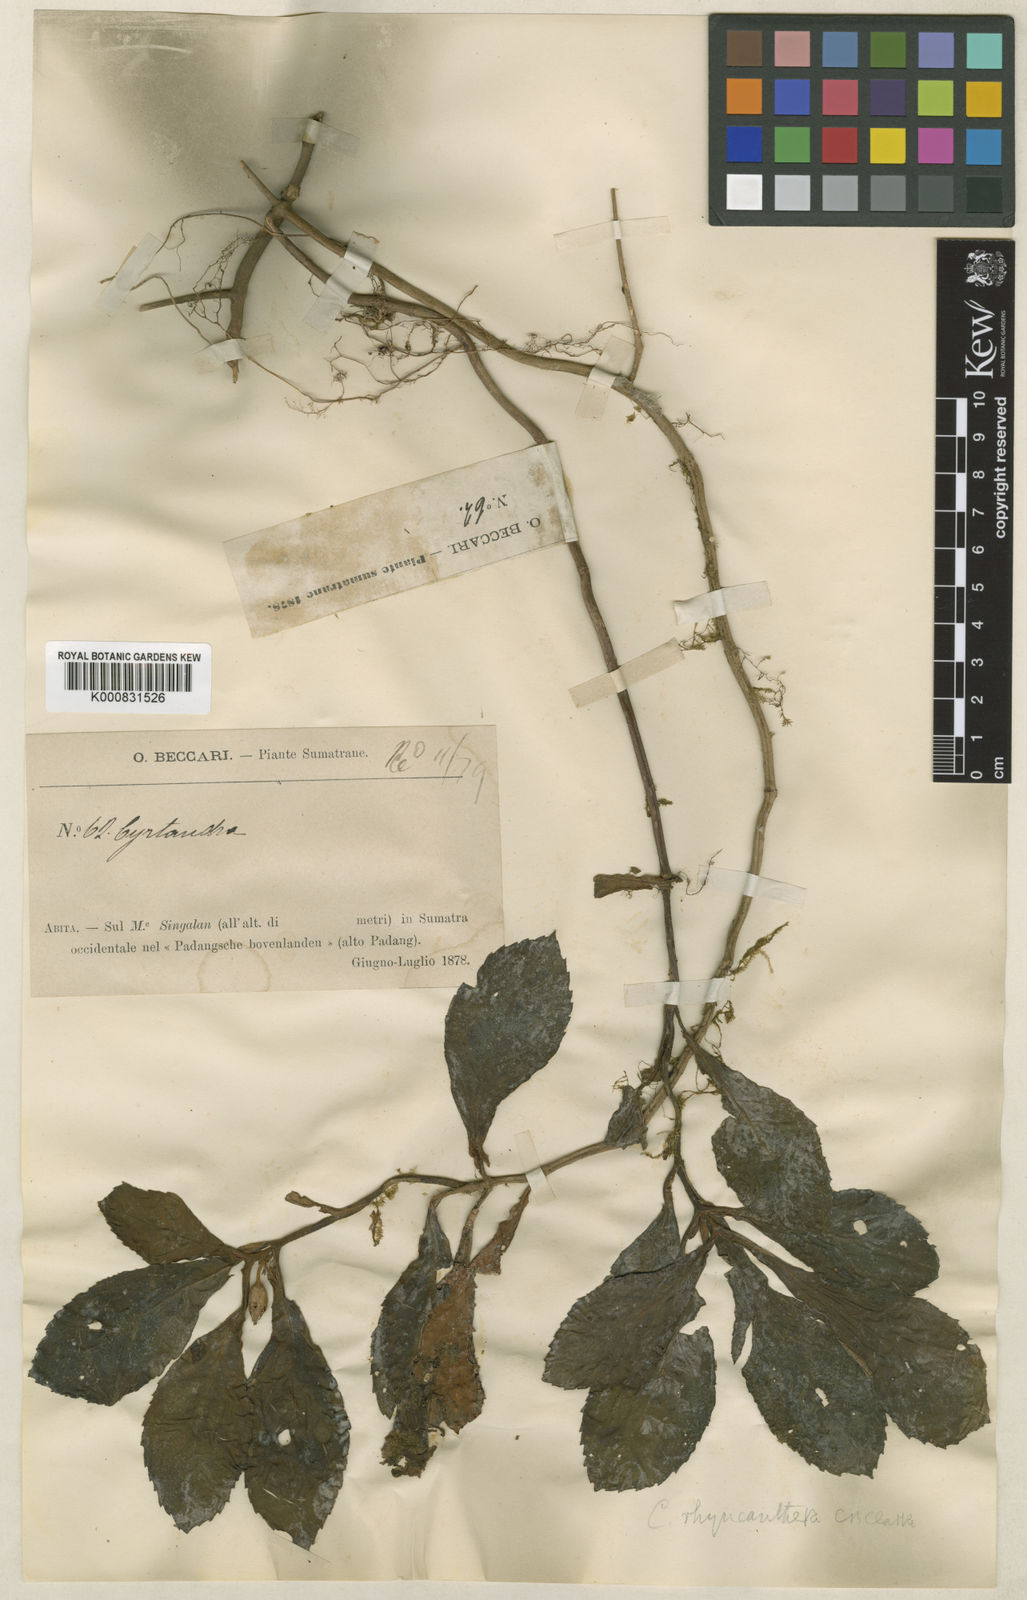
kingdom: Plantae
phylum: Tracheophyta
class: Magnoliopsida
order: Lamiales
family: Gesneriaceae
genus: Cyrtandra
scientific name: Cyrtandra rhyncanthera
